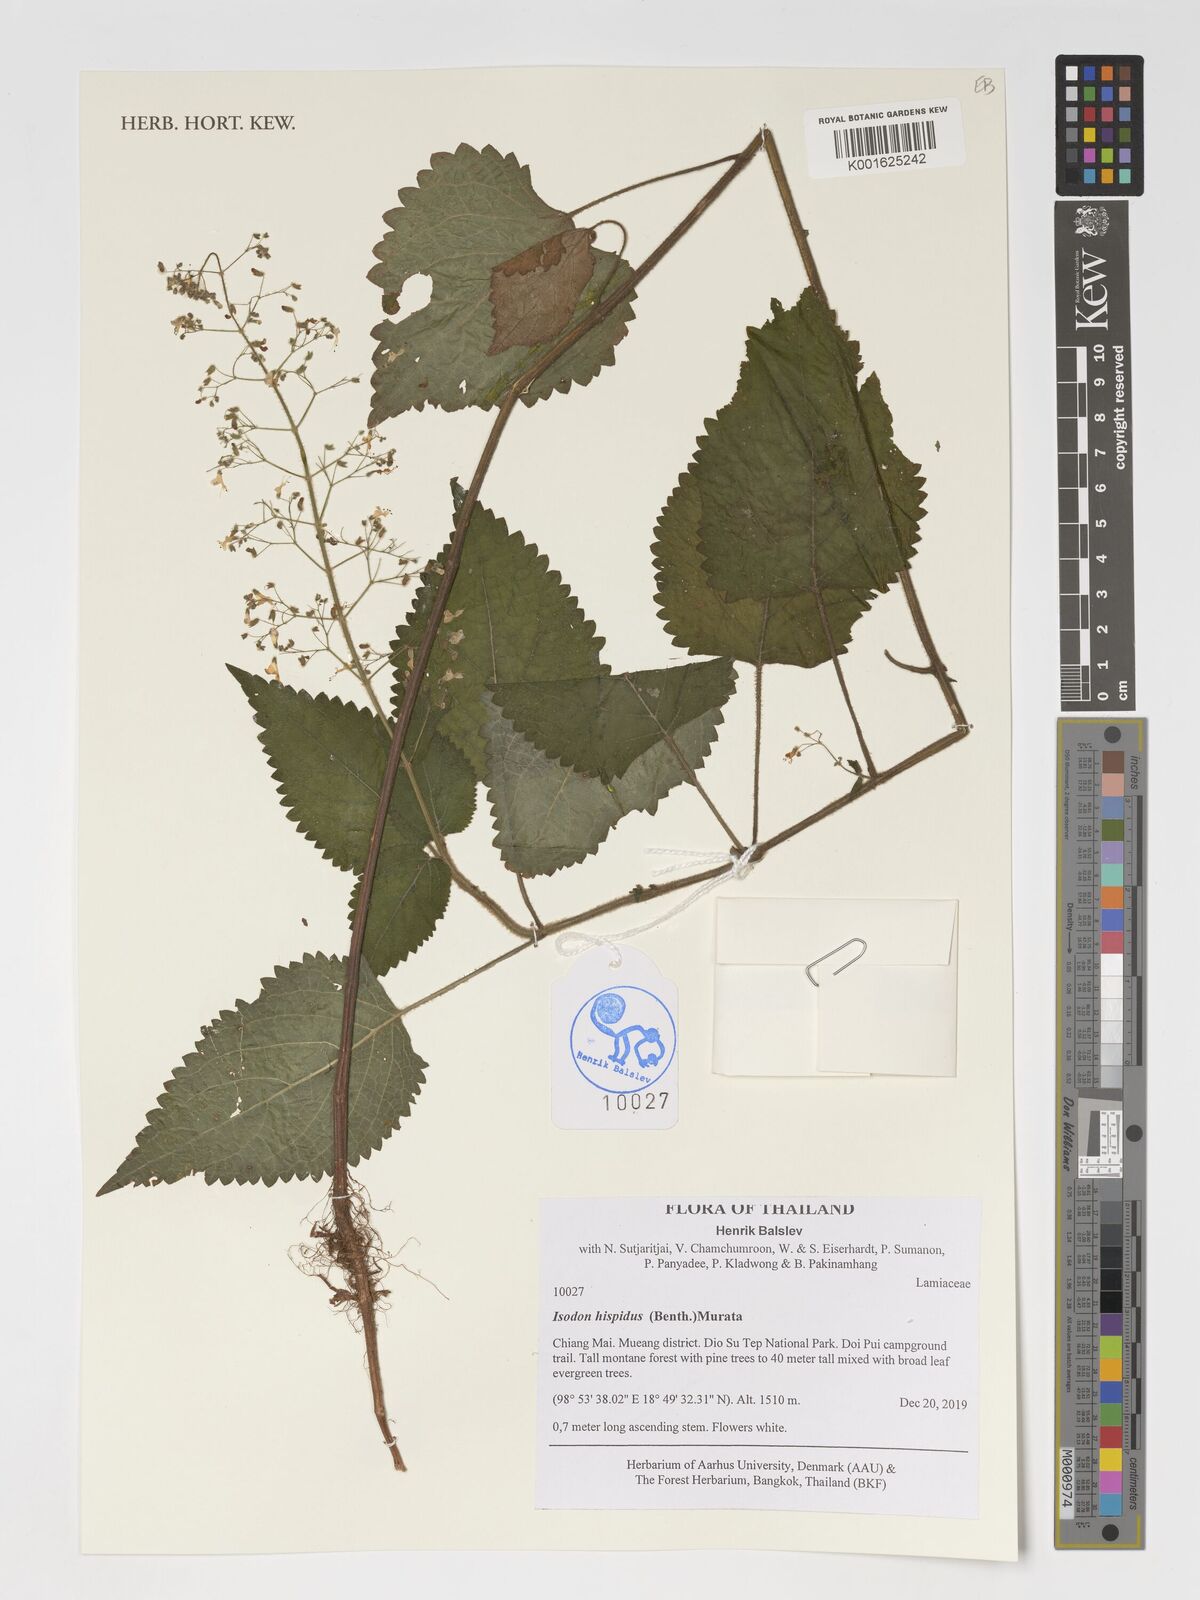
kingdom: Plantae
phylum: Tracheophyta
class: Magnoliopsida
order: Lamiales
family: Lamiaceae
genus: Isodon
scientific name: Isodon hispidus
